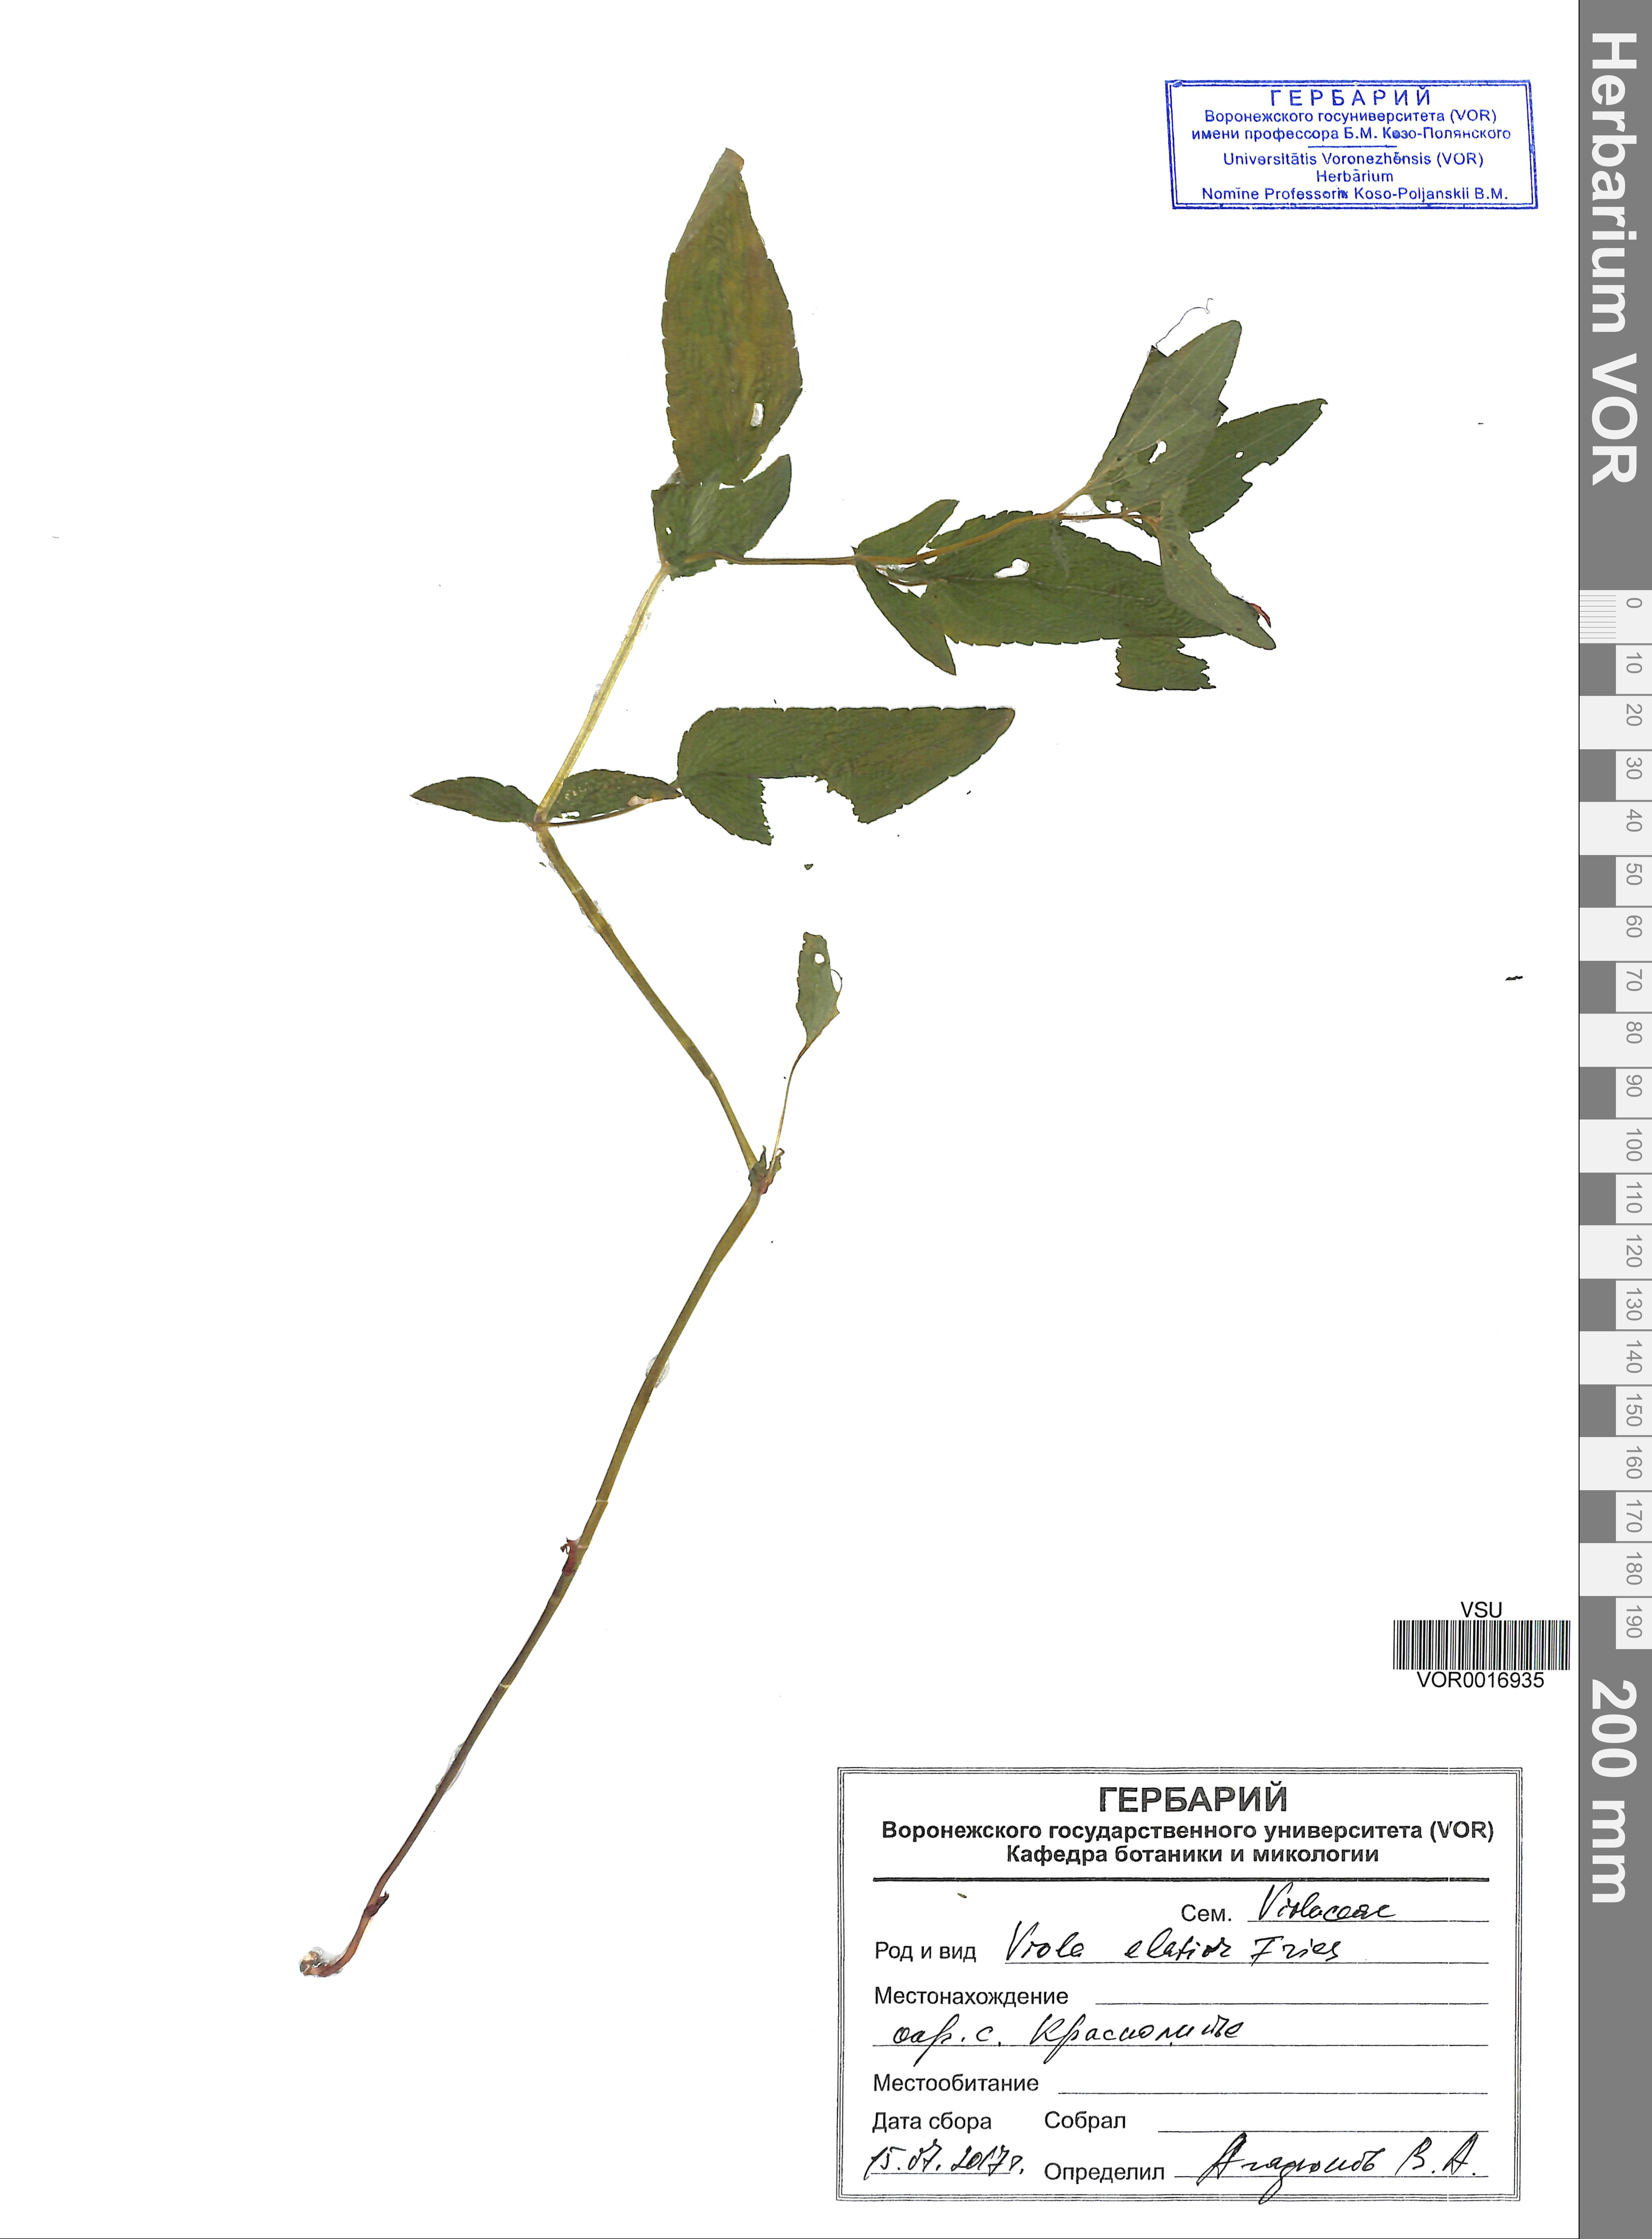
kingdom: Plantae
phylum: Tracheophyta
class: Magnoliopsida
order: Malpighiales
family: Violaceae
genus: Viola
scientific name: Viola elatior
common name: Tall violet
